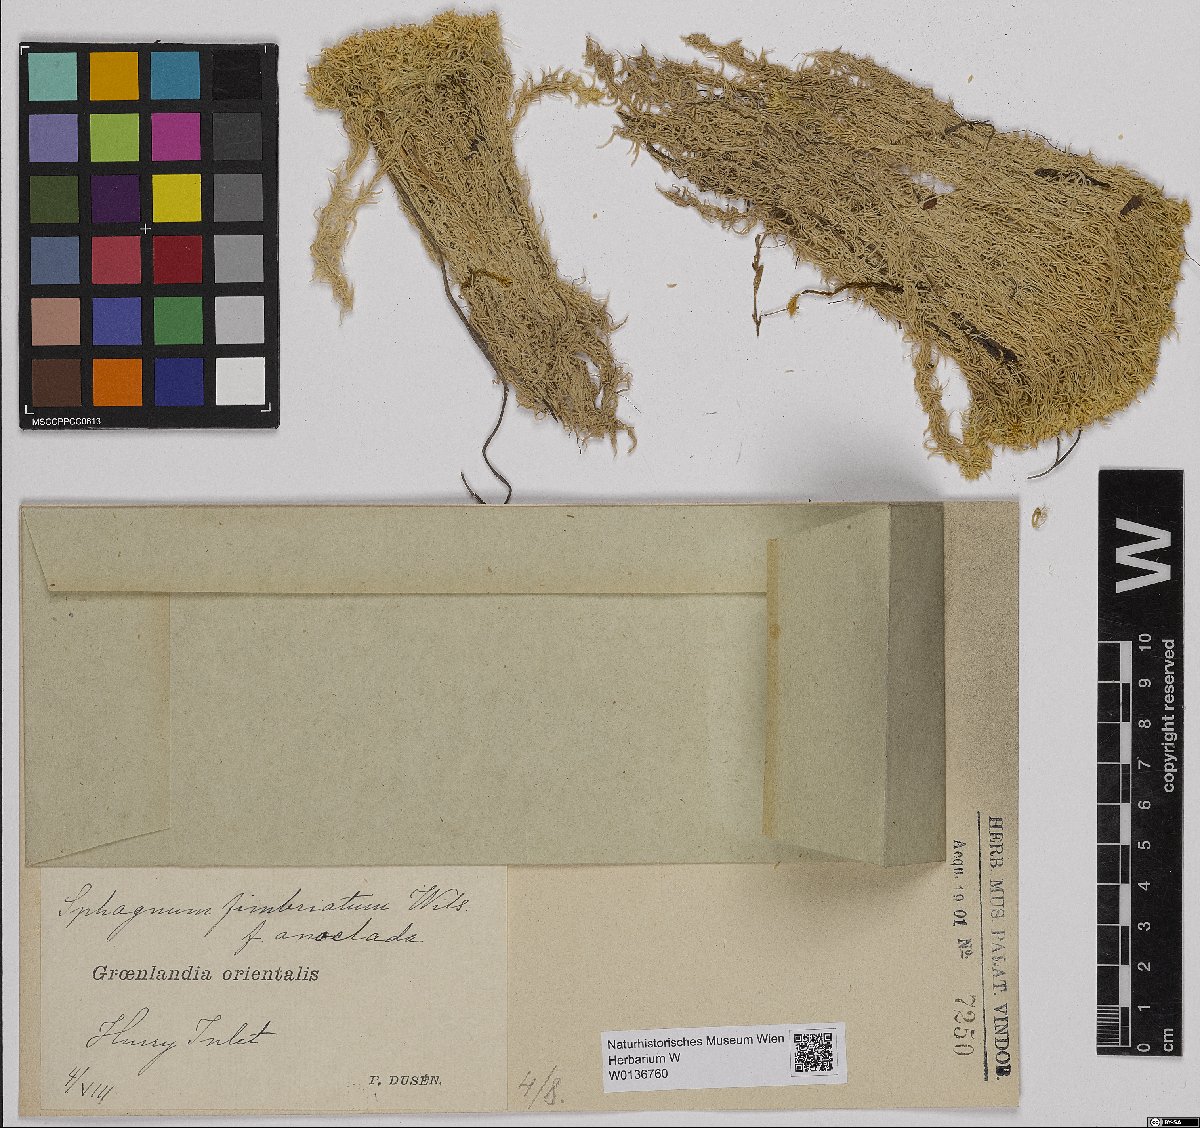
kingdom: Plantae
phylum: Bryophyta
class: Sphagnopsida
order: Sphagnales
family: Sphagnaceae
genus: Sphagnum
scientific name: Sphagnum fimbriatum
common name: Fringed peat moss
